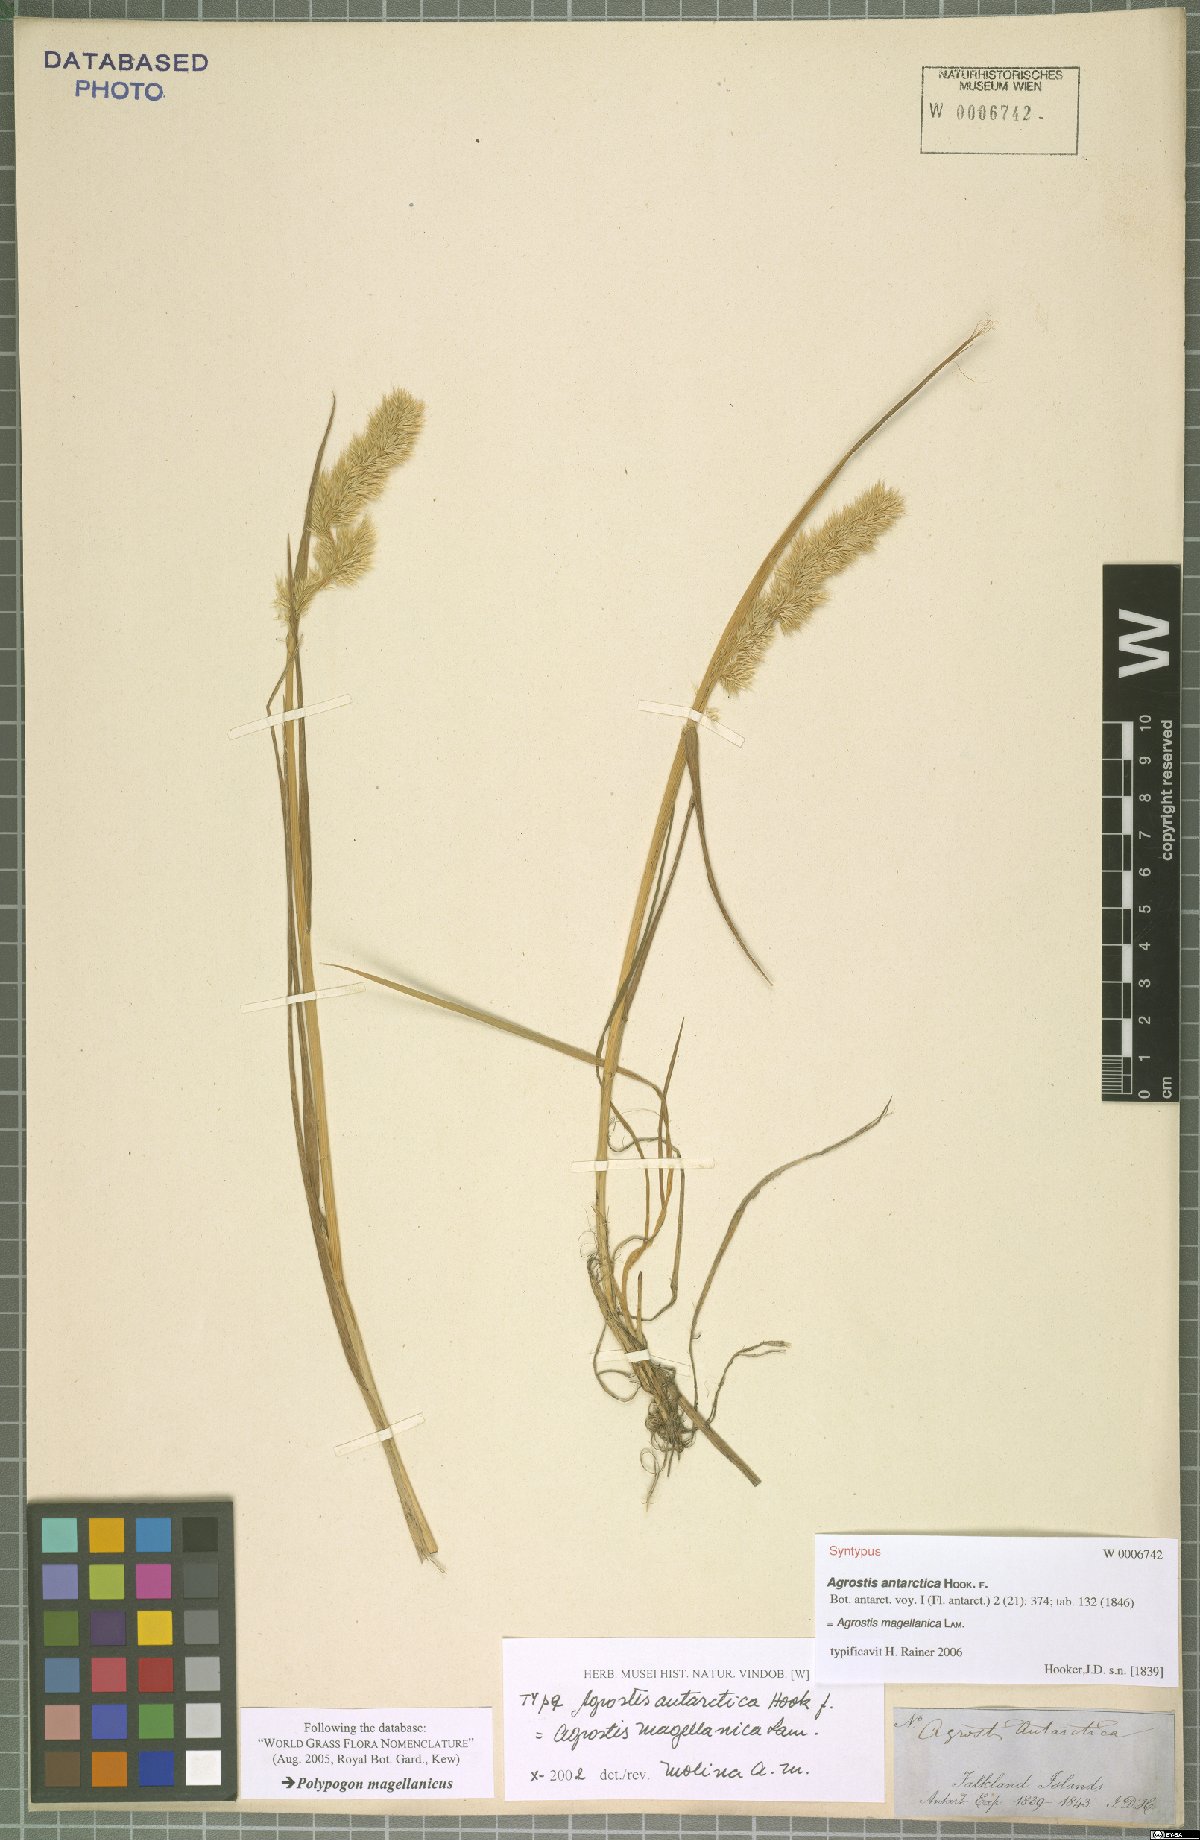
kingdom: Plantae
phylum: Tracheophyta
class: Liliopsida
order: Poales
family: Poaceae
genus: Polypogon
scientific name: Polypogon magellanicus
